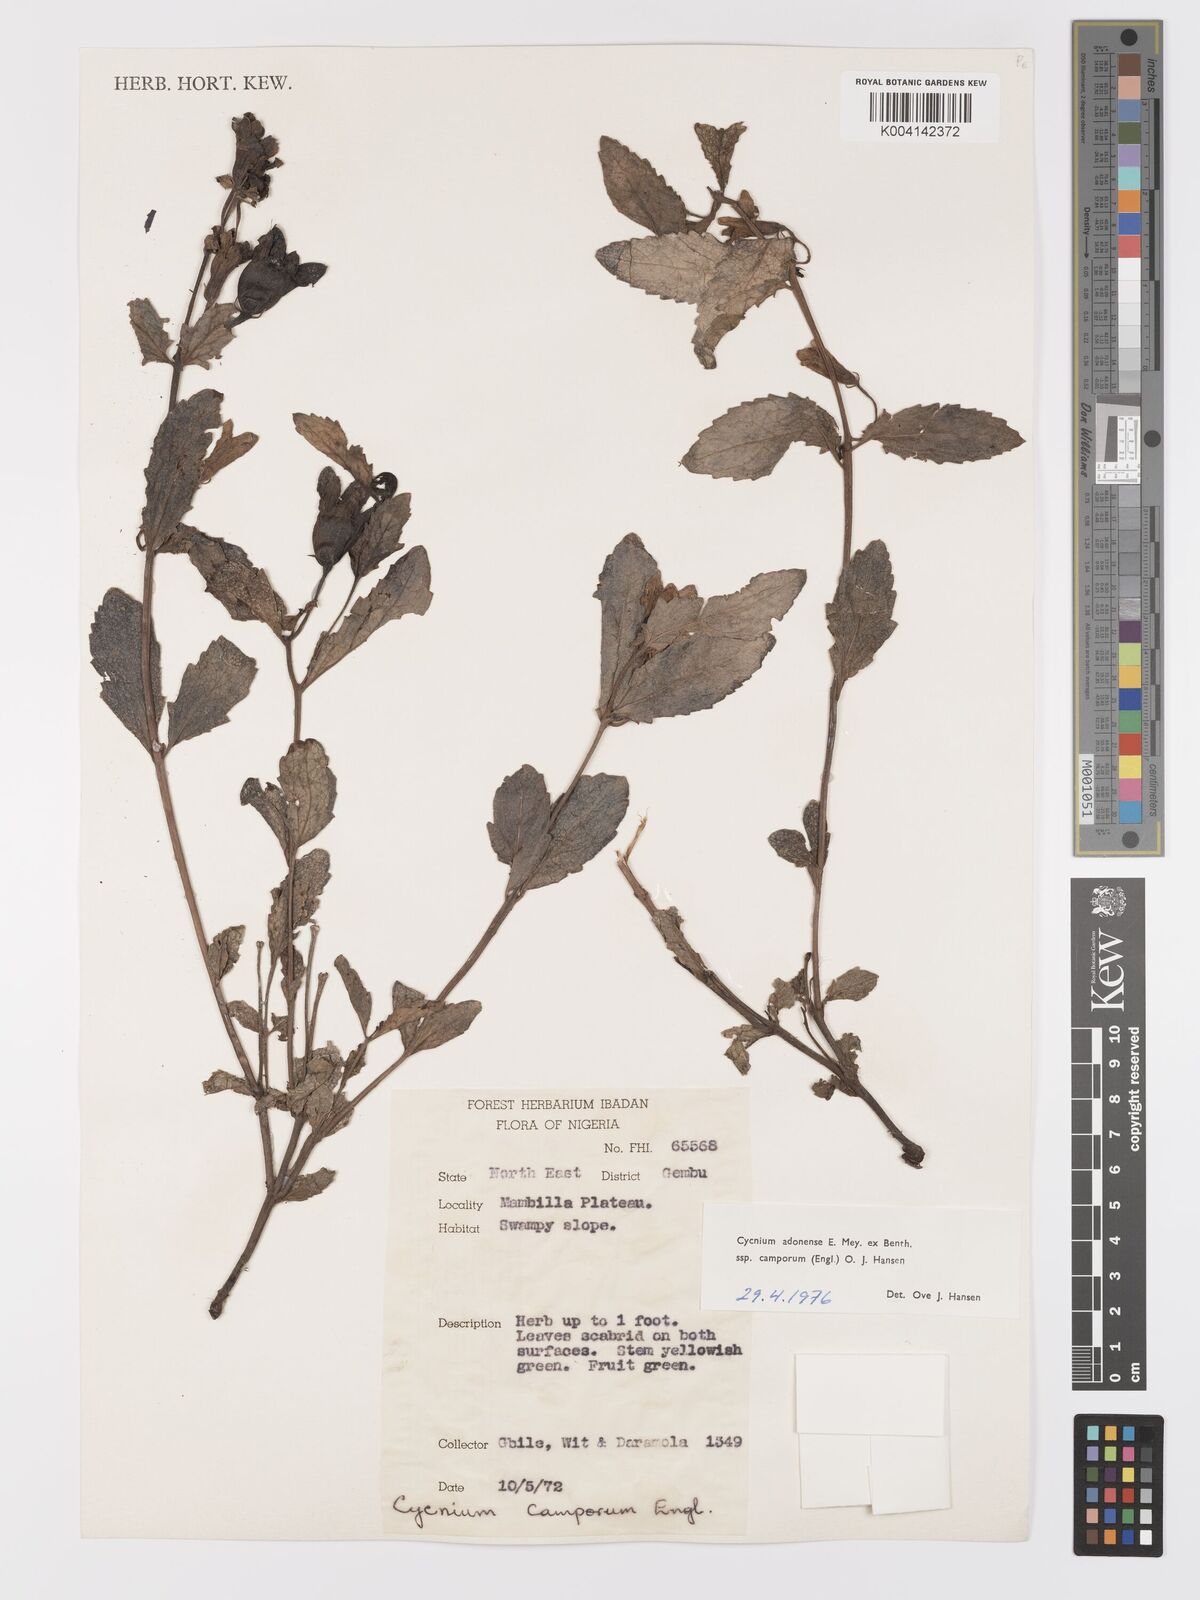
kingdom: Plantae
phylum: Tracheophyta
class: Magnoliopsida
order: Lamiales
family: Orobanchaceae
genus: Cycnium
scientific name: Cycnium adoense
